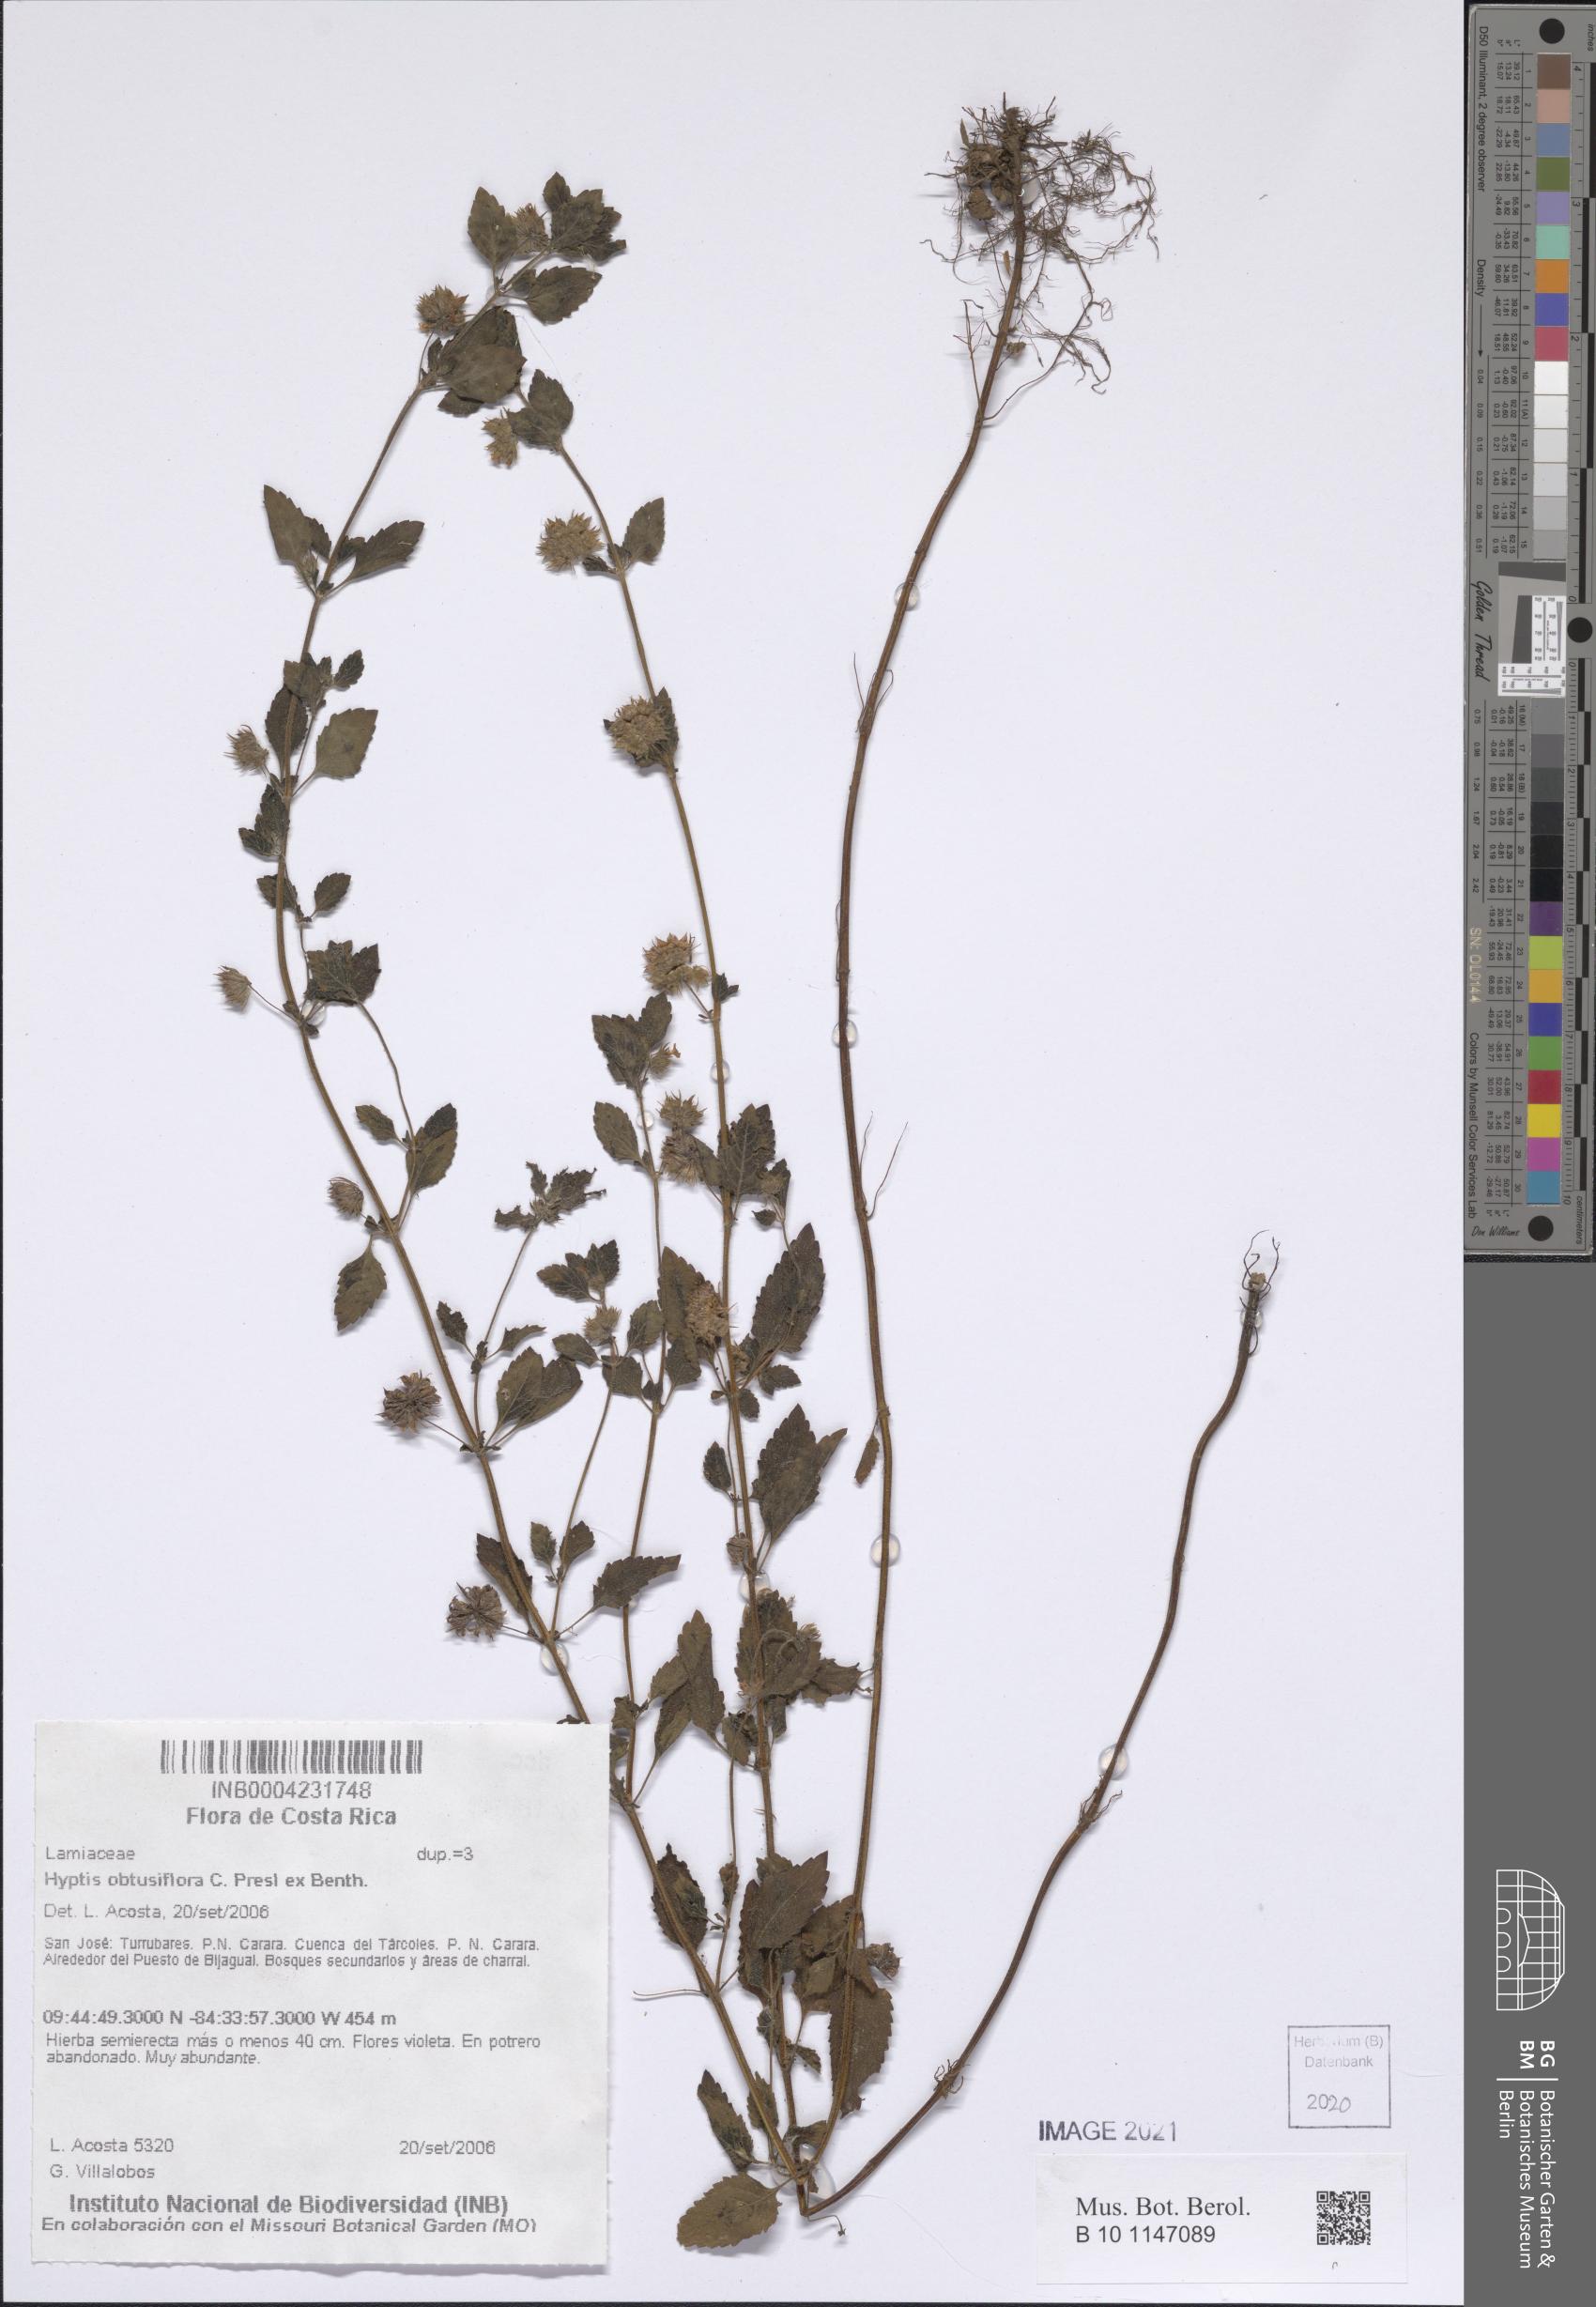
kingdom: Plantae
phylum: Tracheophyta
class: Magnoliopsida
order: Lamiales
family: Lamiaceae
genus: Hyptis
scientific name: Hyptis obtusiflora
